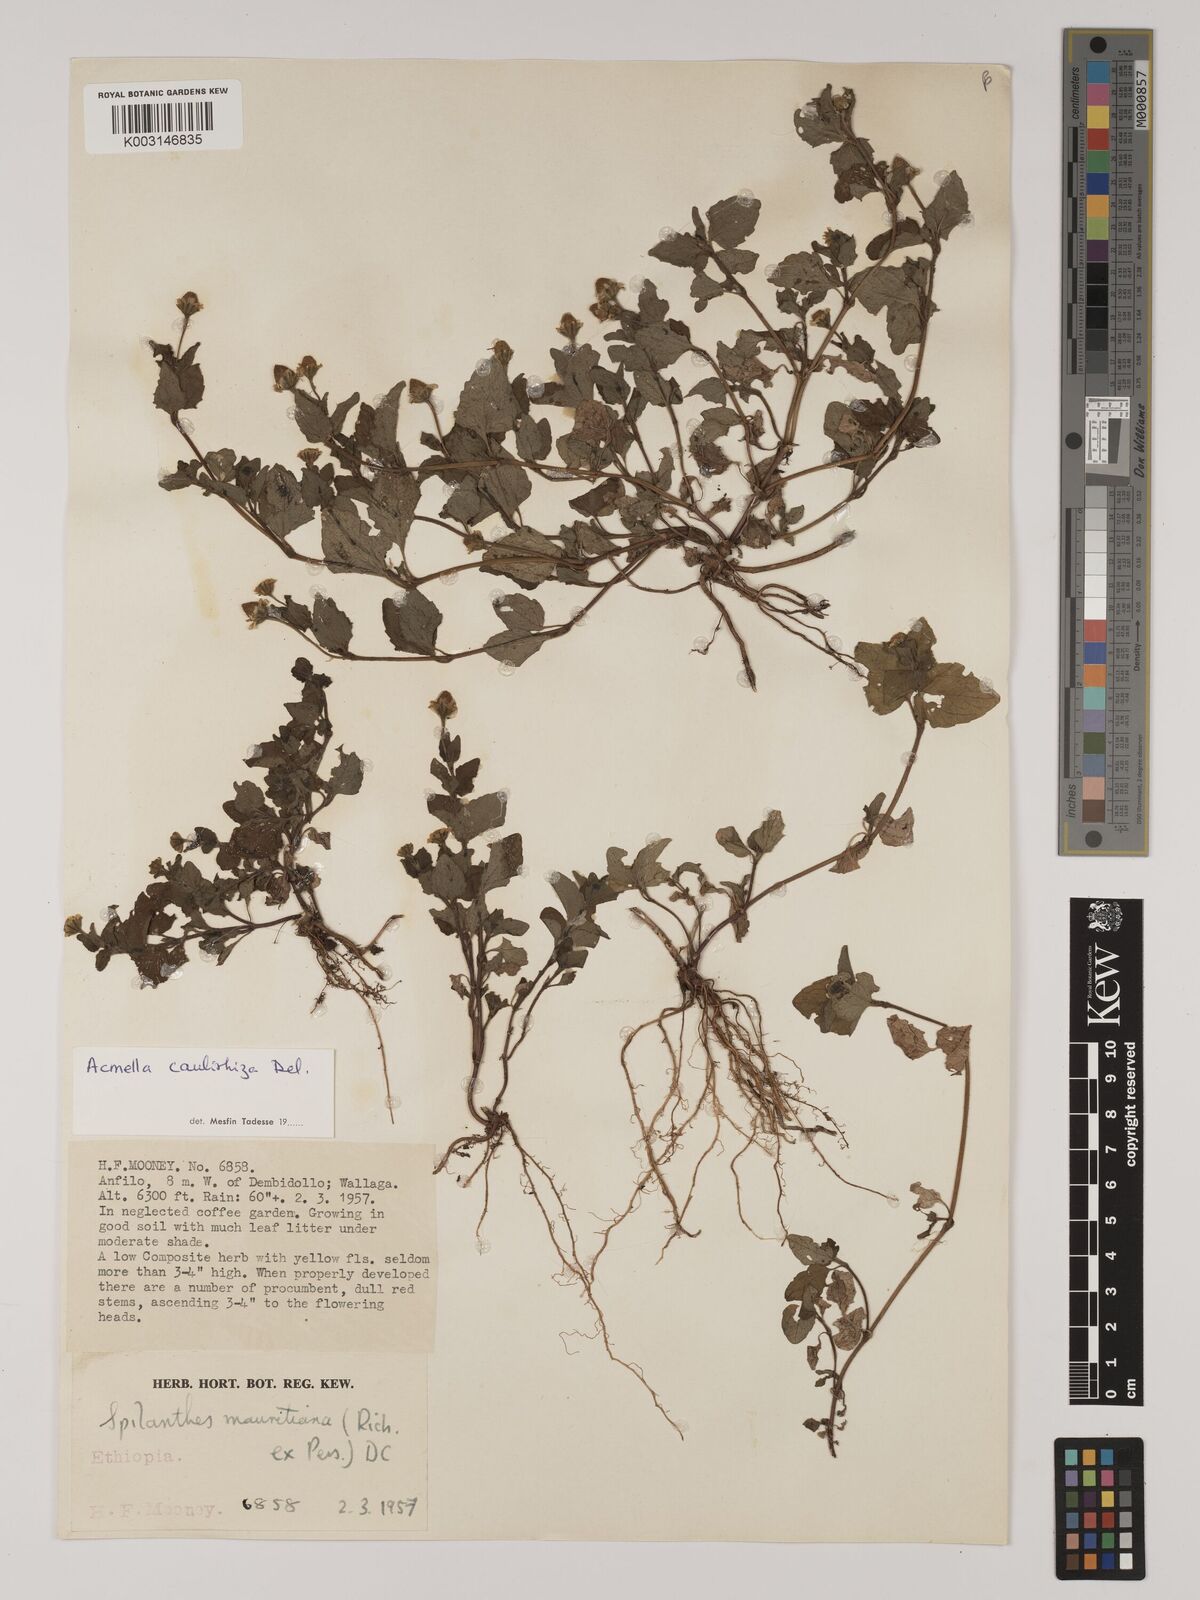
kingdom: Plantae
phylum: Tracheophyta
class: Magnoliopsida
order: Asterales
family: Asteraceae
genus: Acmella
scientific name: Acmella caulirhiza
